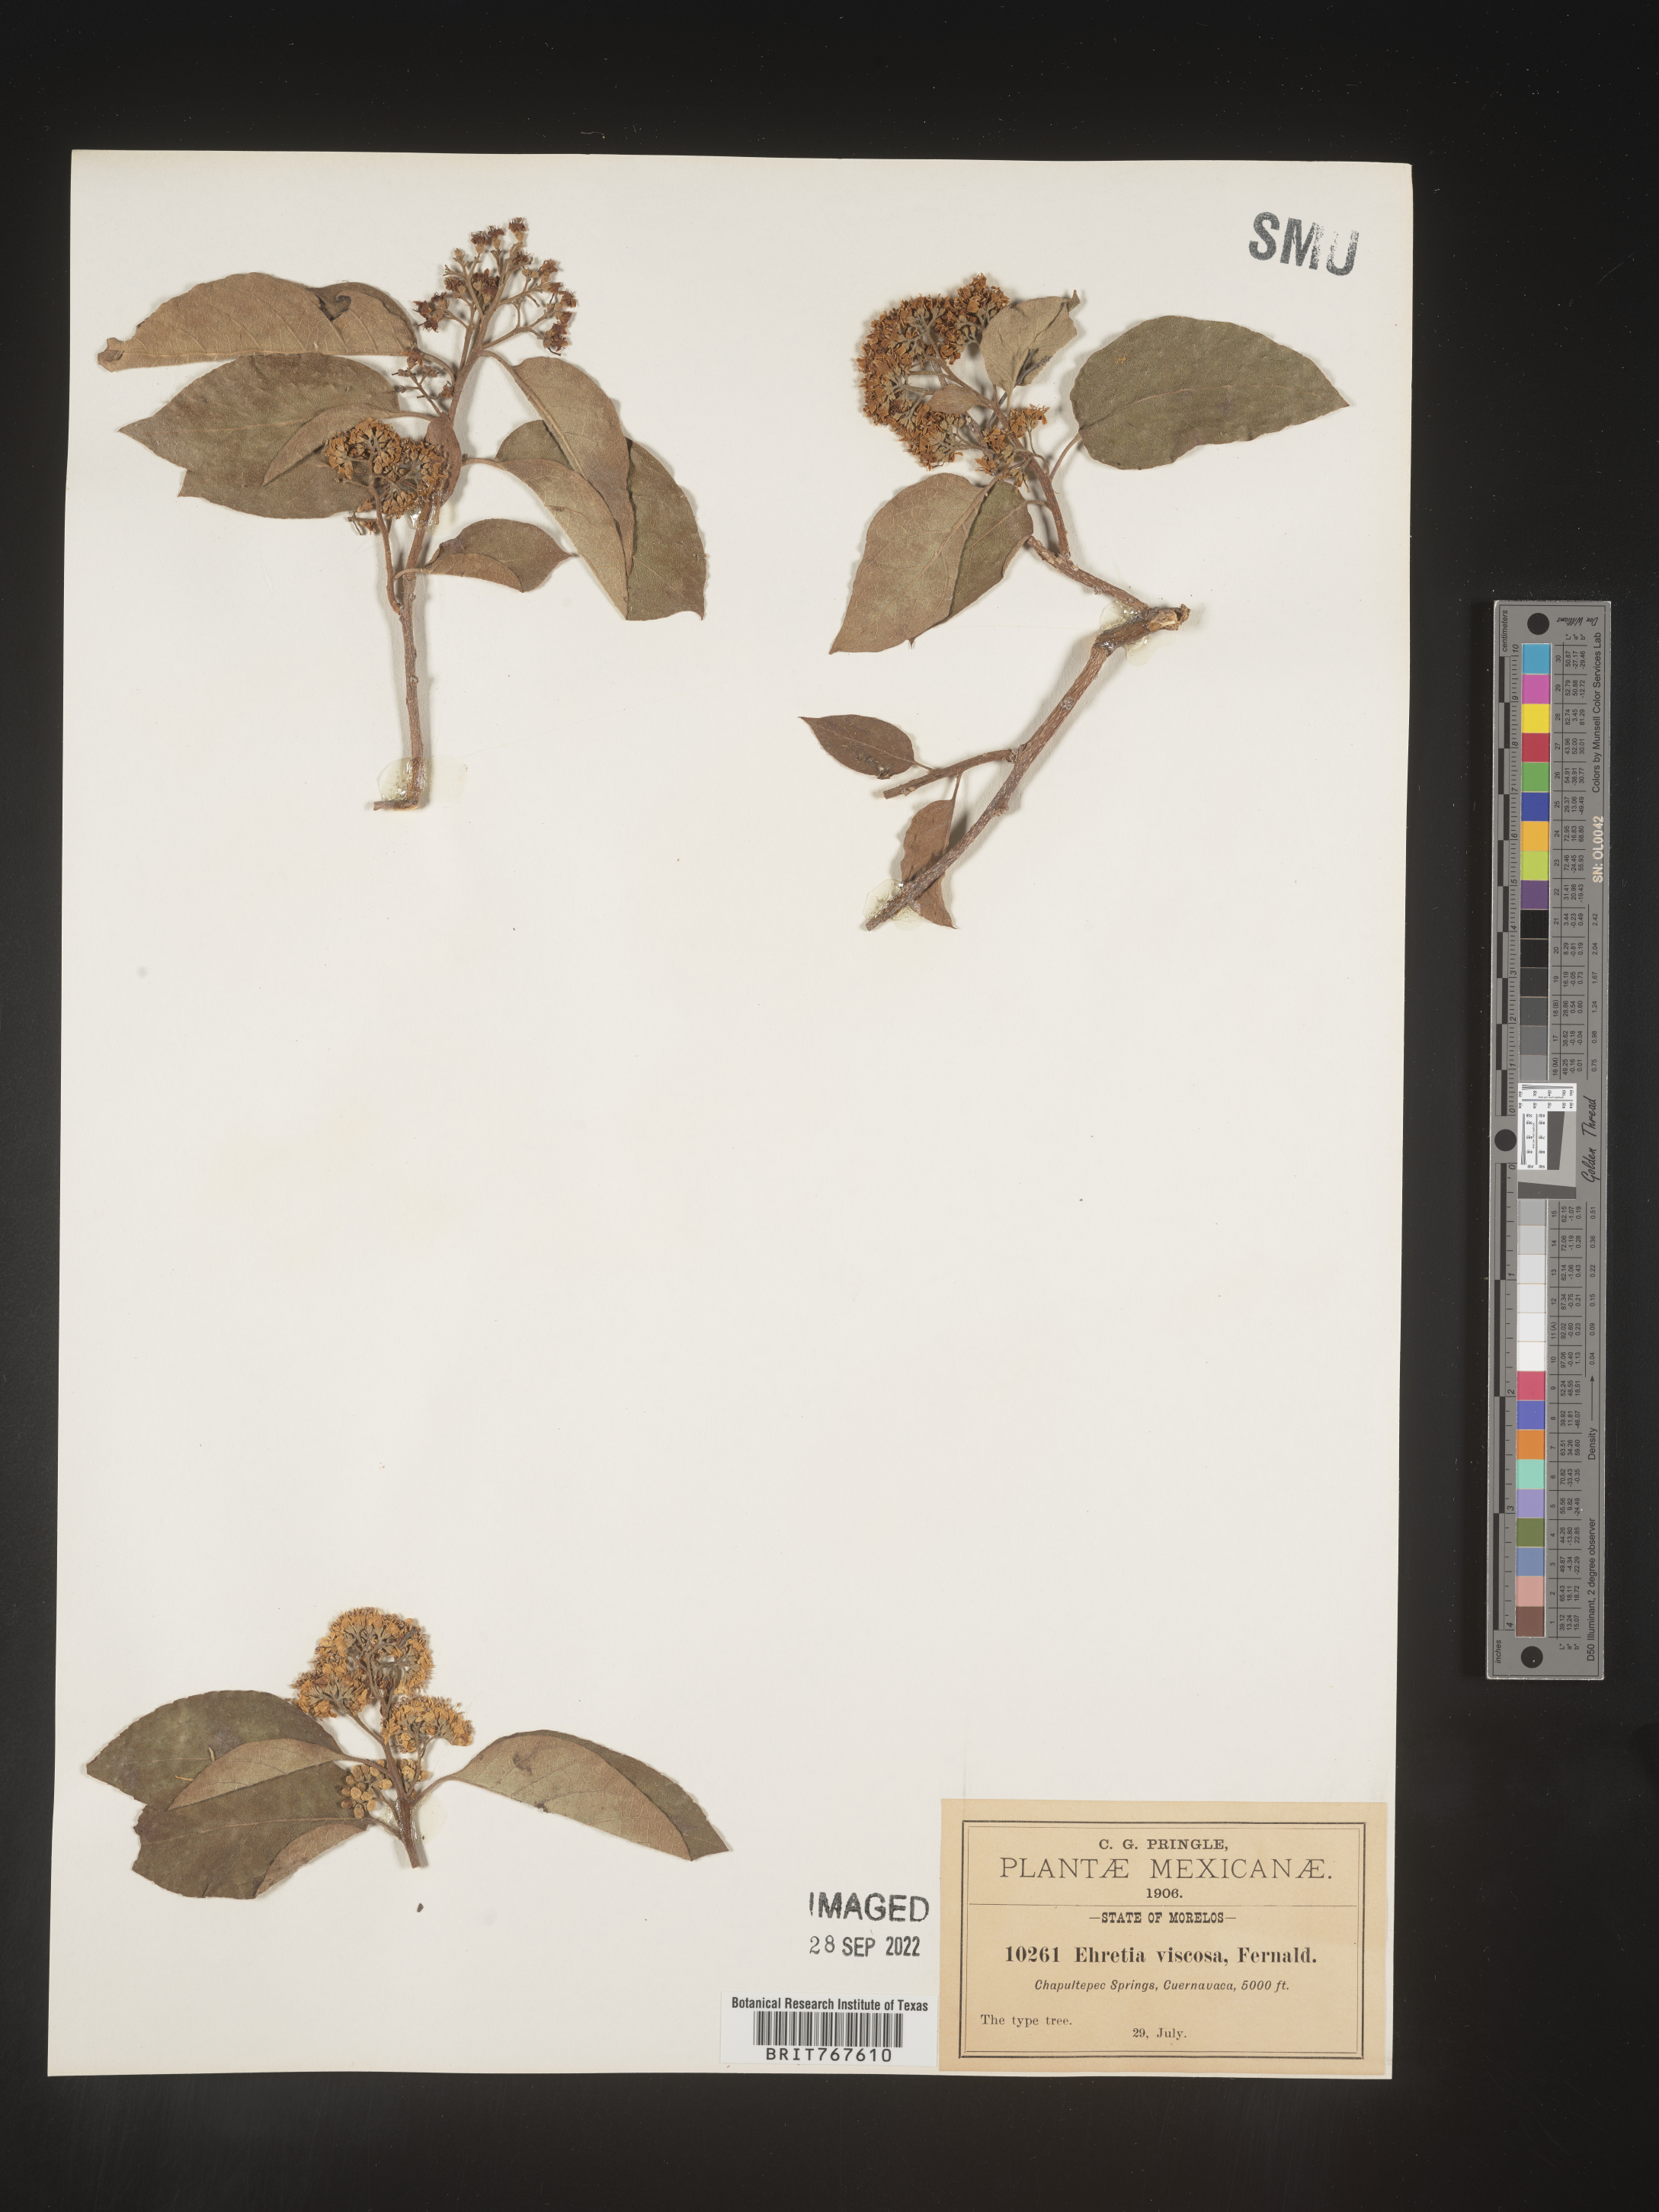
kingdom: Plantae
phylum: Tracheophyta
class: Magnoliopsida
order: Boraginales
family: Ehretiaceae
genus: Ehretia
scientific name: Ehretia
